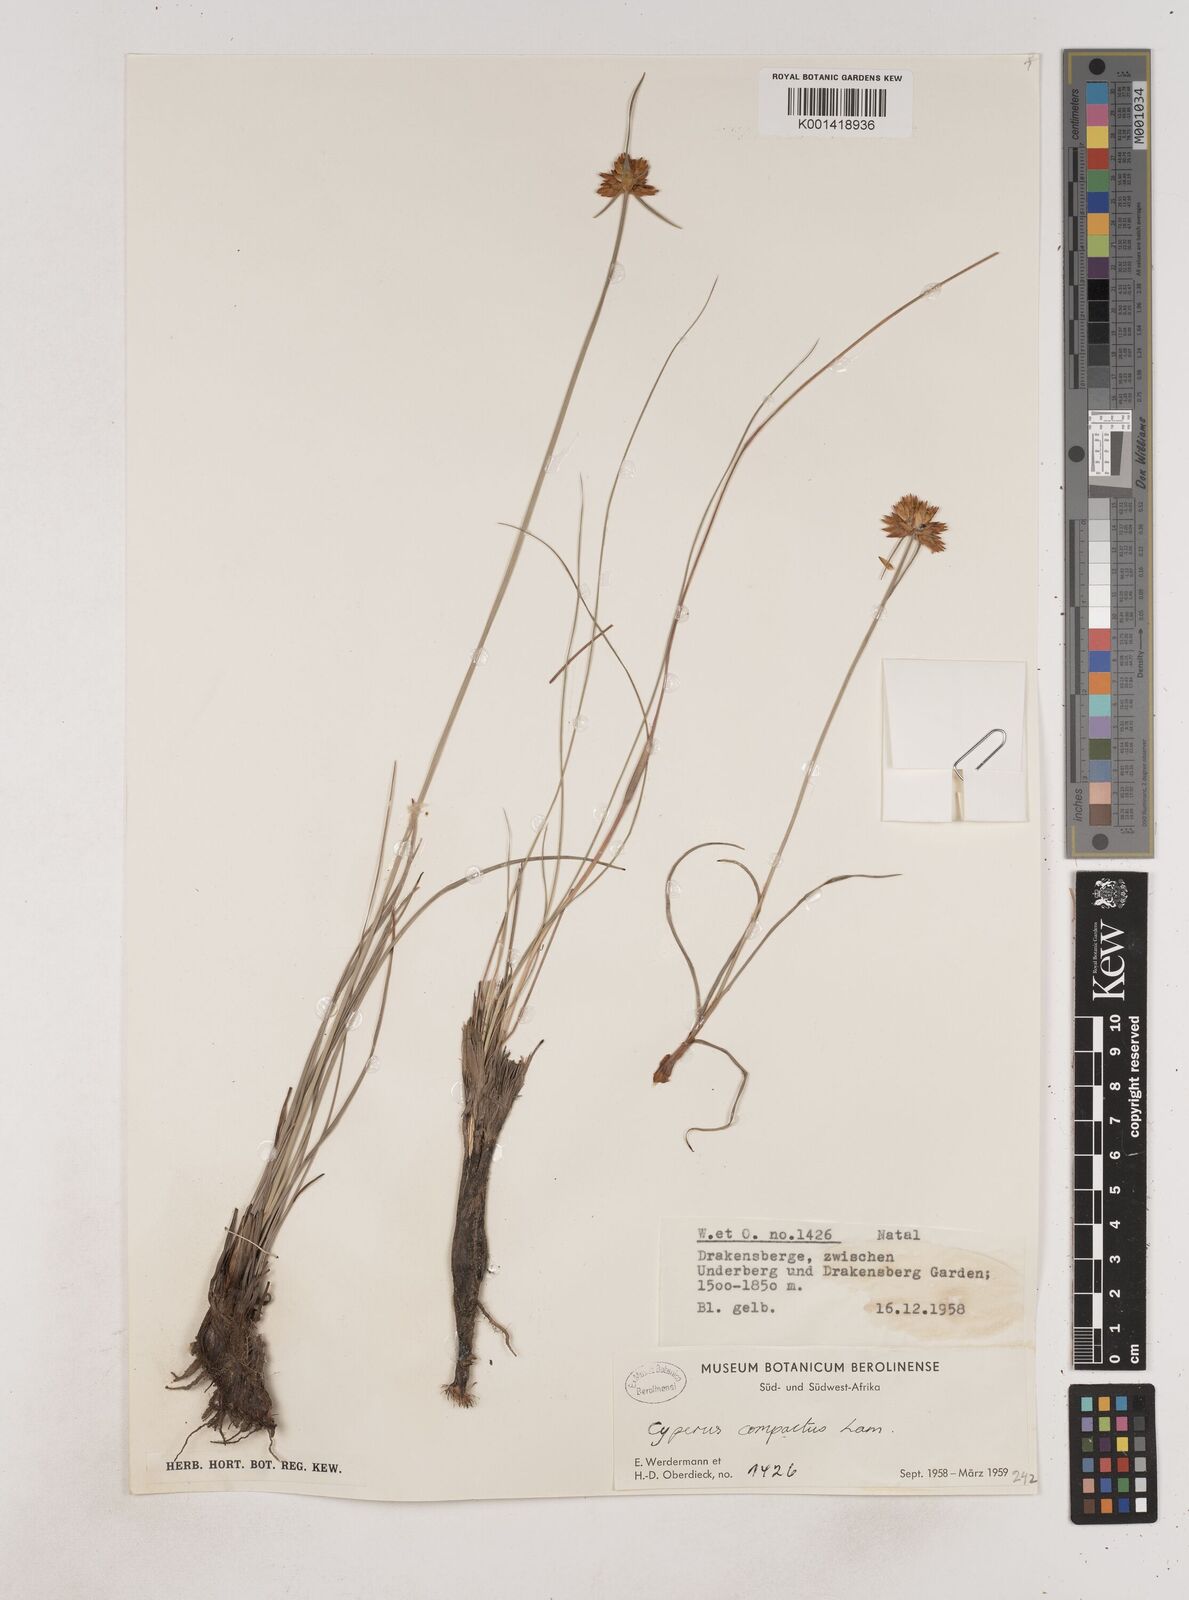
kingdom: Plantae
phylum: Tracheophyta
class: Liliopsida
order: Poales
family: Cyperaceae
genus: Cyperus
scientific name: Cyperus sphaerocephalus
